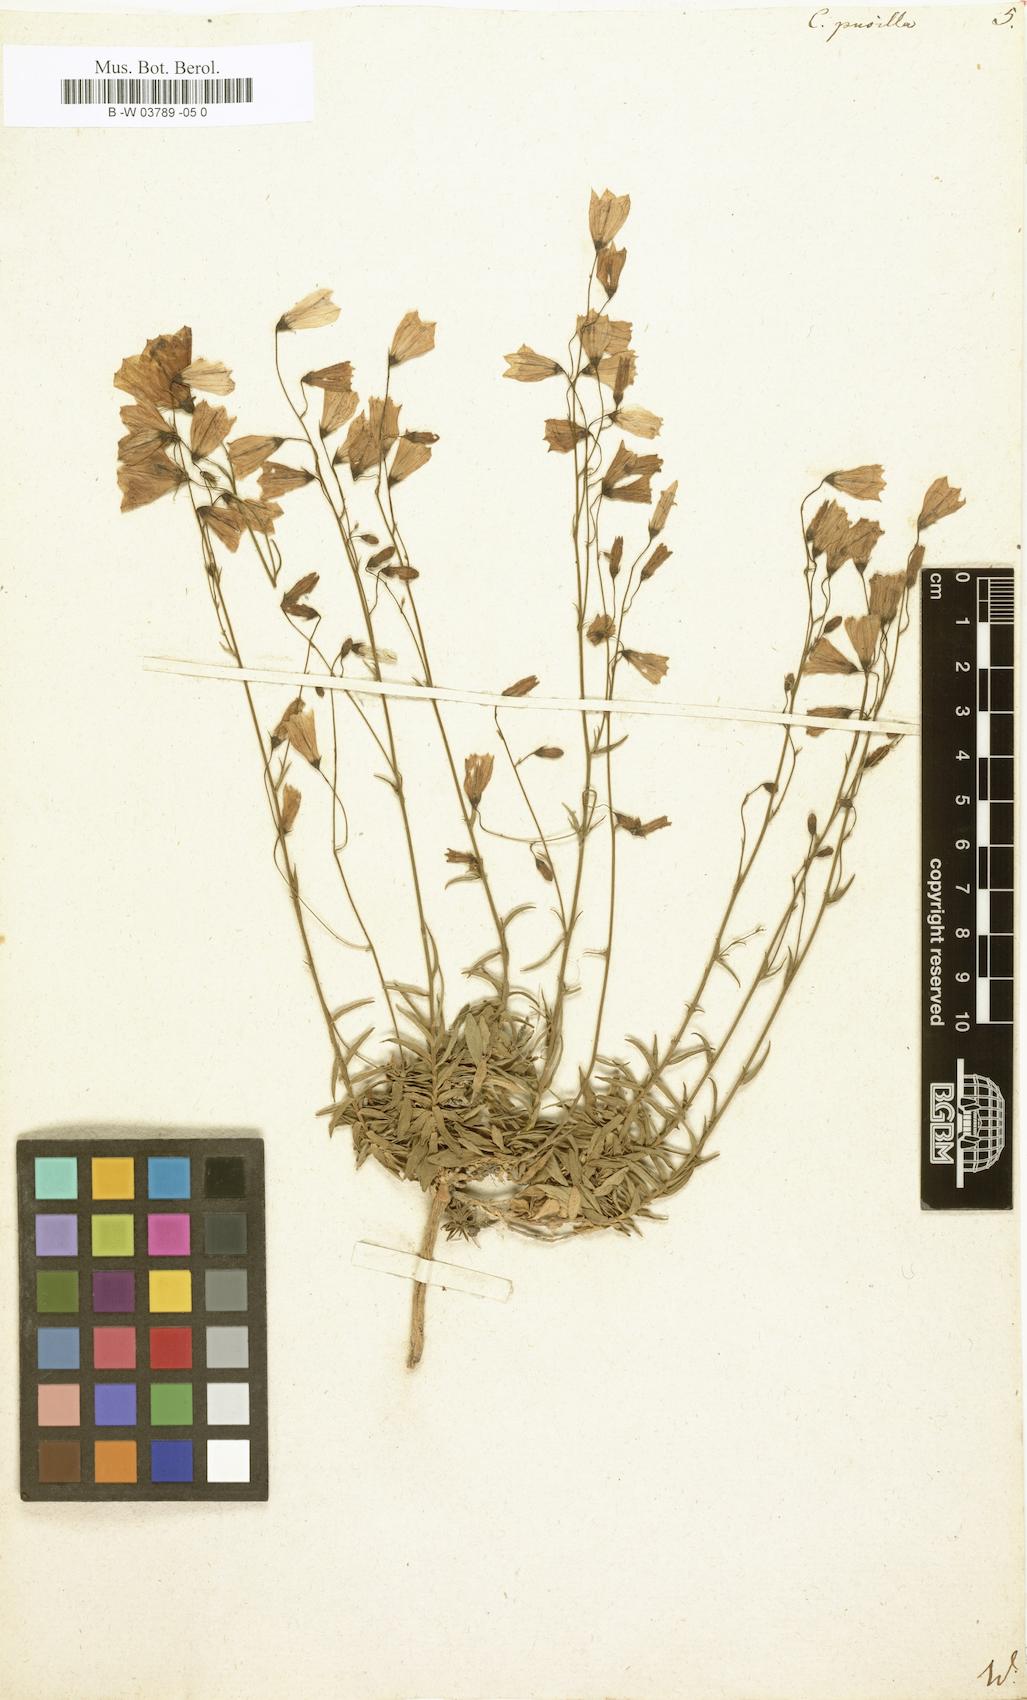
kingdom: Plantae
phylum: Tracheophyta
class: Magnoliopsida
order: Asterales
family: Campanulaceae
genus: Campanula
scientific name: Campanula cochleariifolia
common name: Fairies'-thimbles
